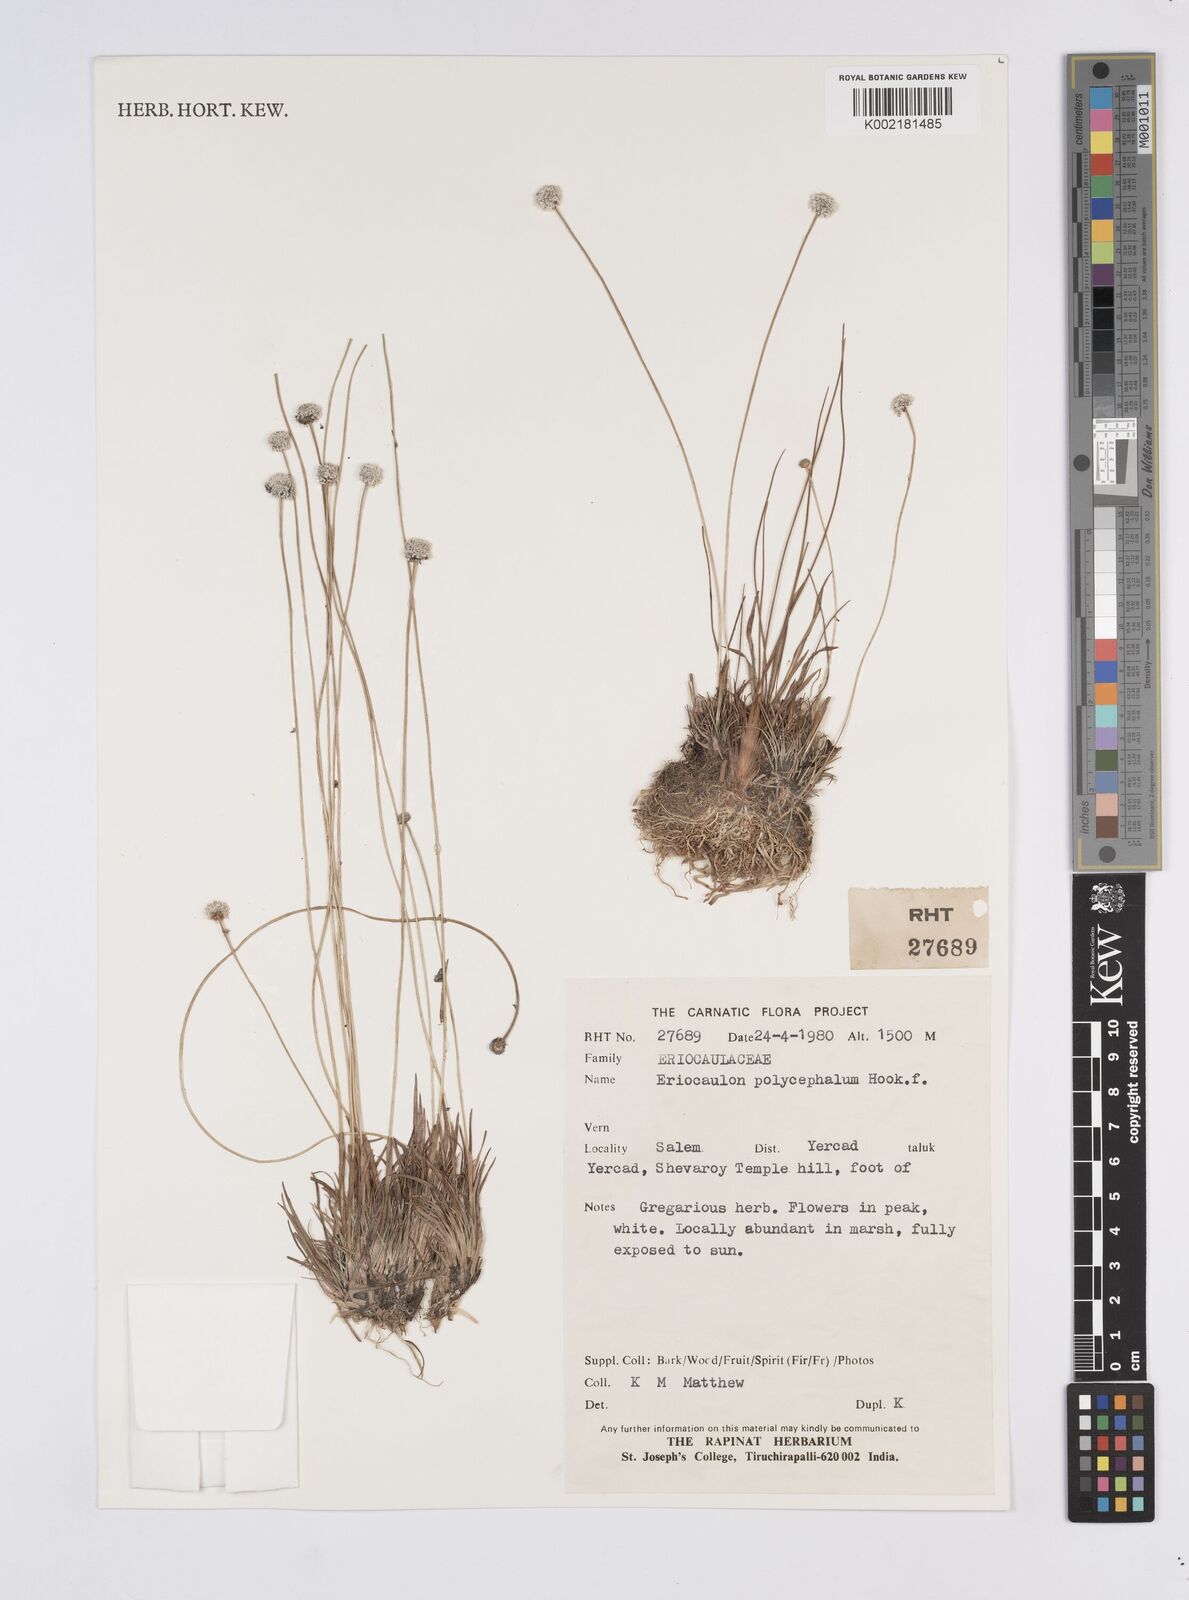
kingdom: Plantae
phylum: Tracheophyta
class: Liliopsida
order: Poales
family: Eriocaulaceae
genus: Eriocaulon
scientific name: Eriocaulon longicuspe
